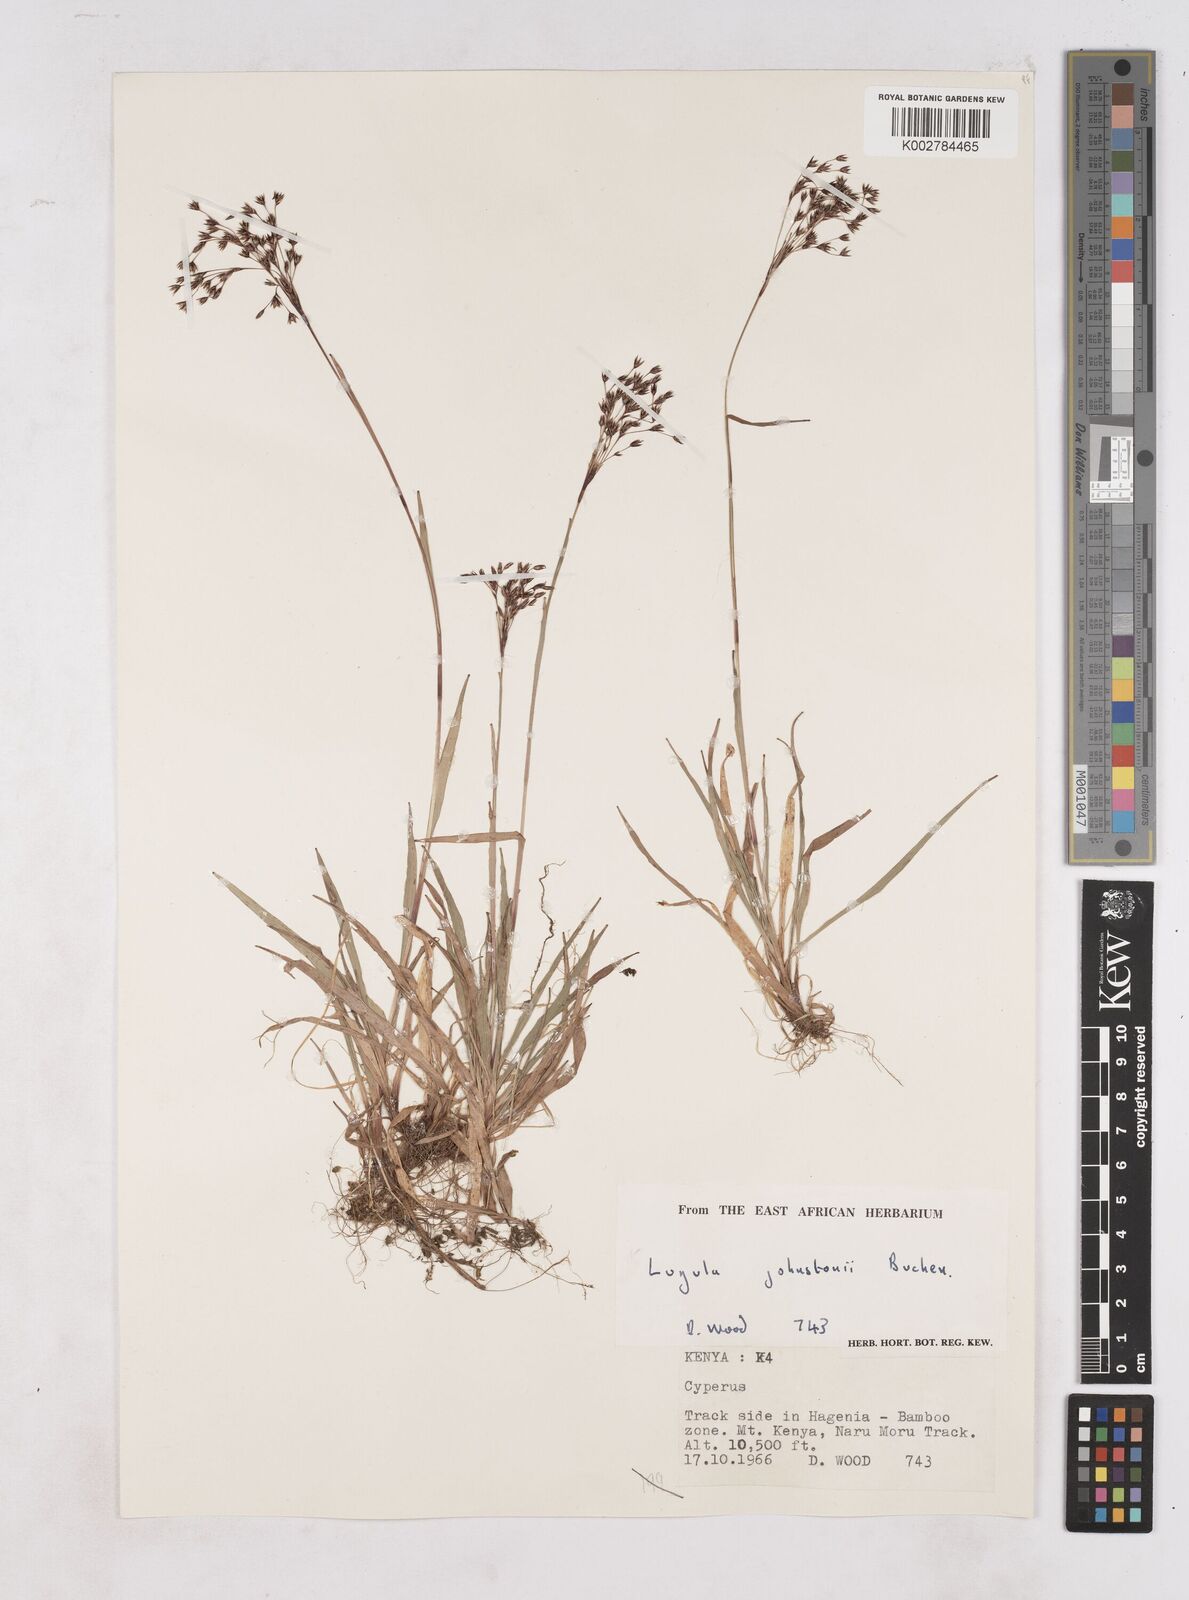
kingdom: Plantae
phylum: Tracheophyta
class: Liliopsida
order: Poales
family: Juncaceae
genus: Luzula
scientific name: Luzula johnstonii
